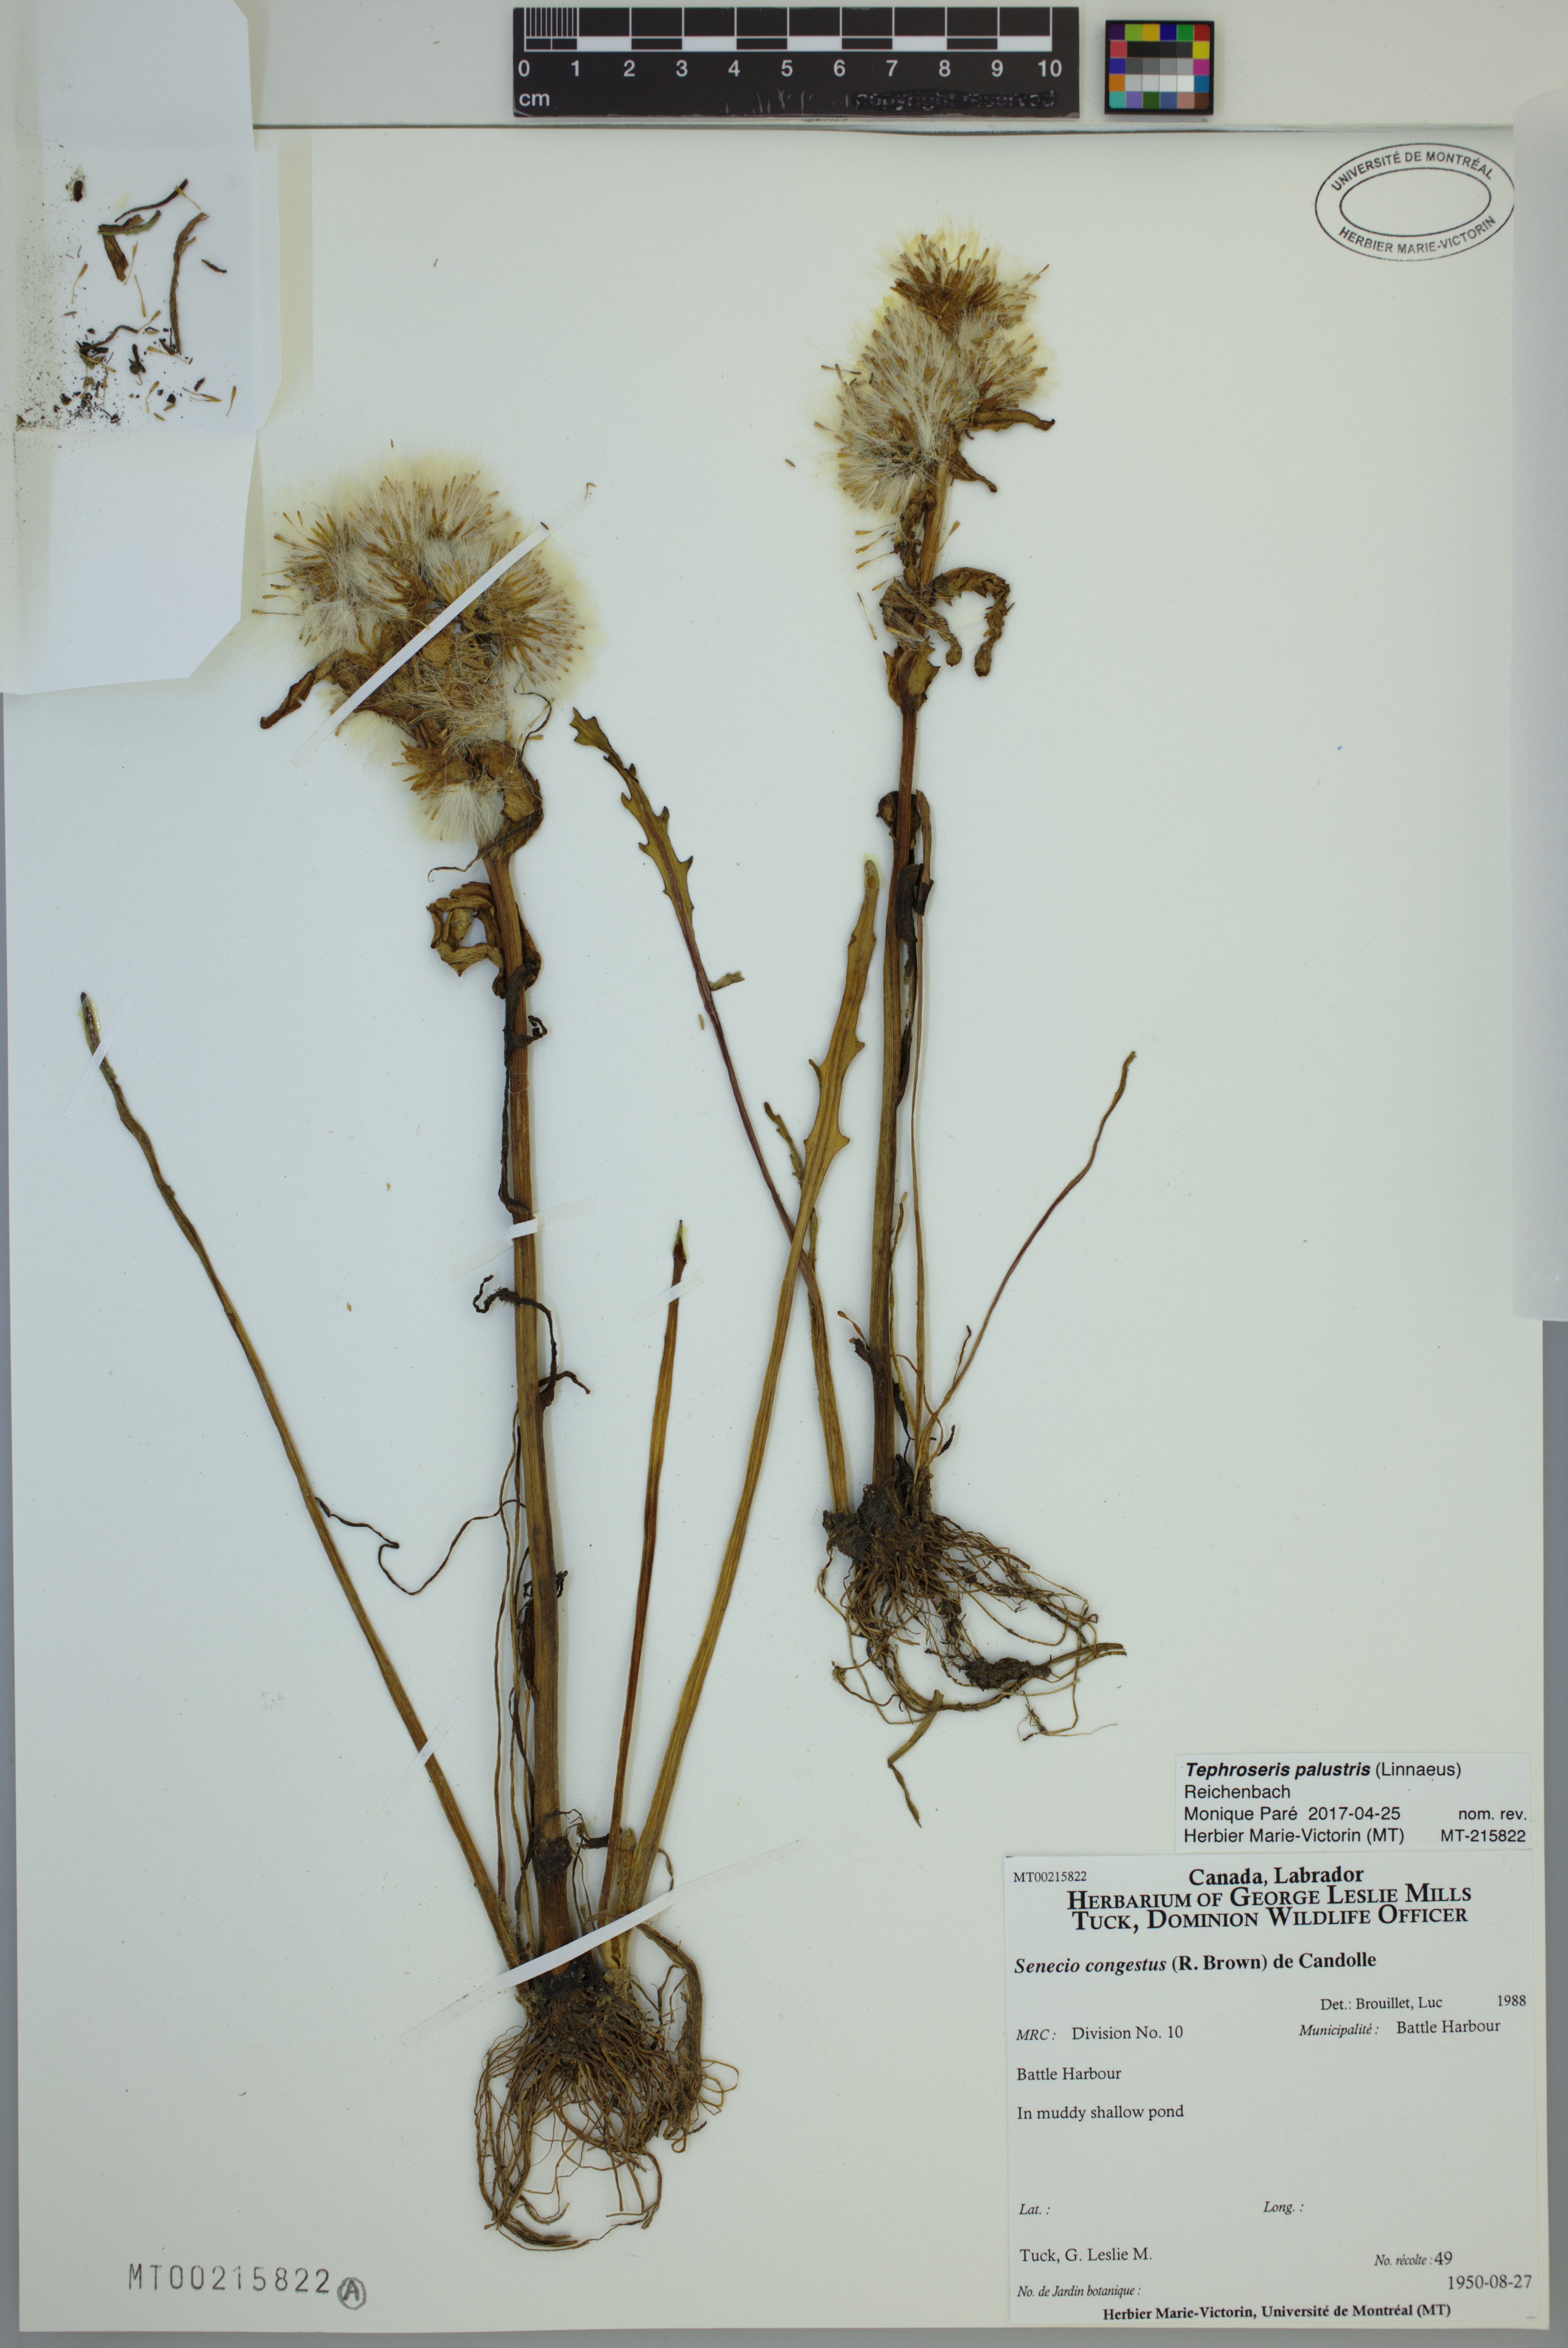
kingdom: Plantae
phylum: Tracheophyta
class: Magnoliopsida
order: Asterales
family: Asteraceae
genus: Tephroseris
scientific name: Tephroseris palustris
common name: Marsh fleawort
